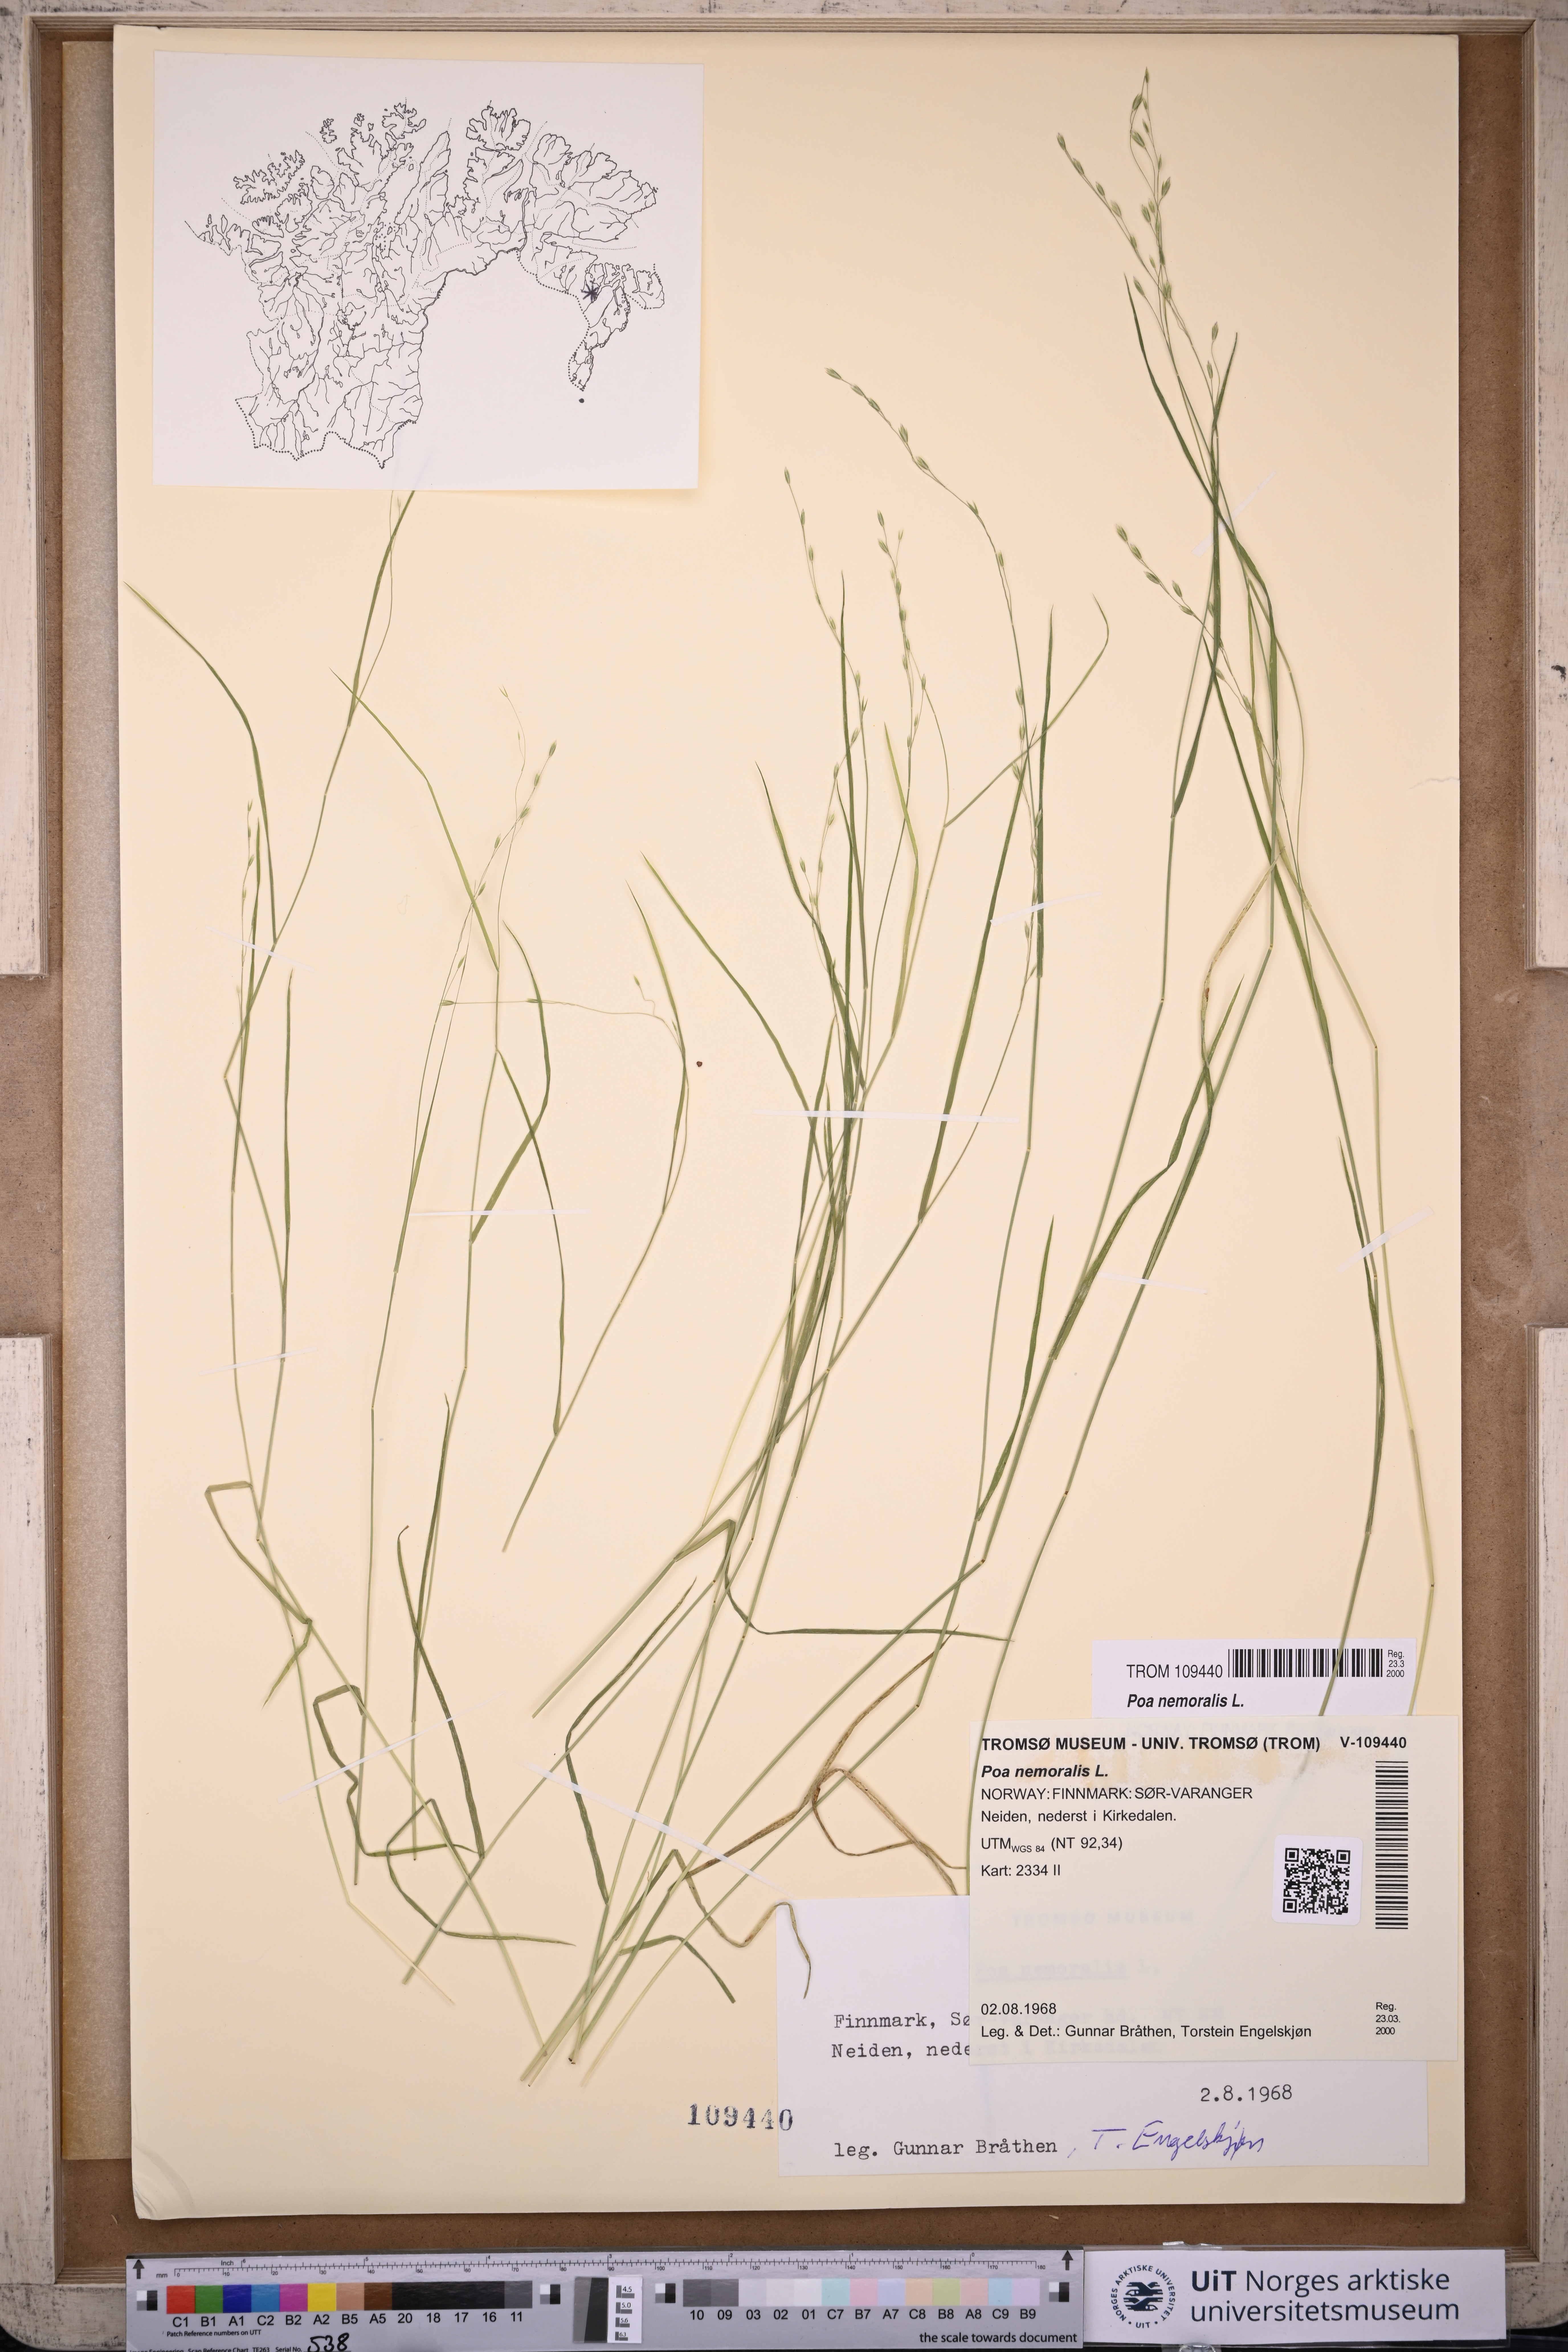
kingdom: Plantae
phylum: Tracheophyta
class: Liliopsida
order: Poales
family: Poaceae
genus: Poa
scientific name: Poa nemoralis
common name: Wood bluegrass
